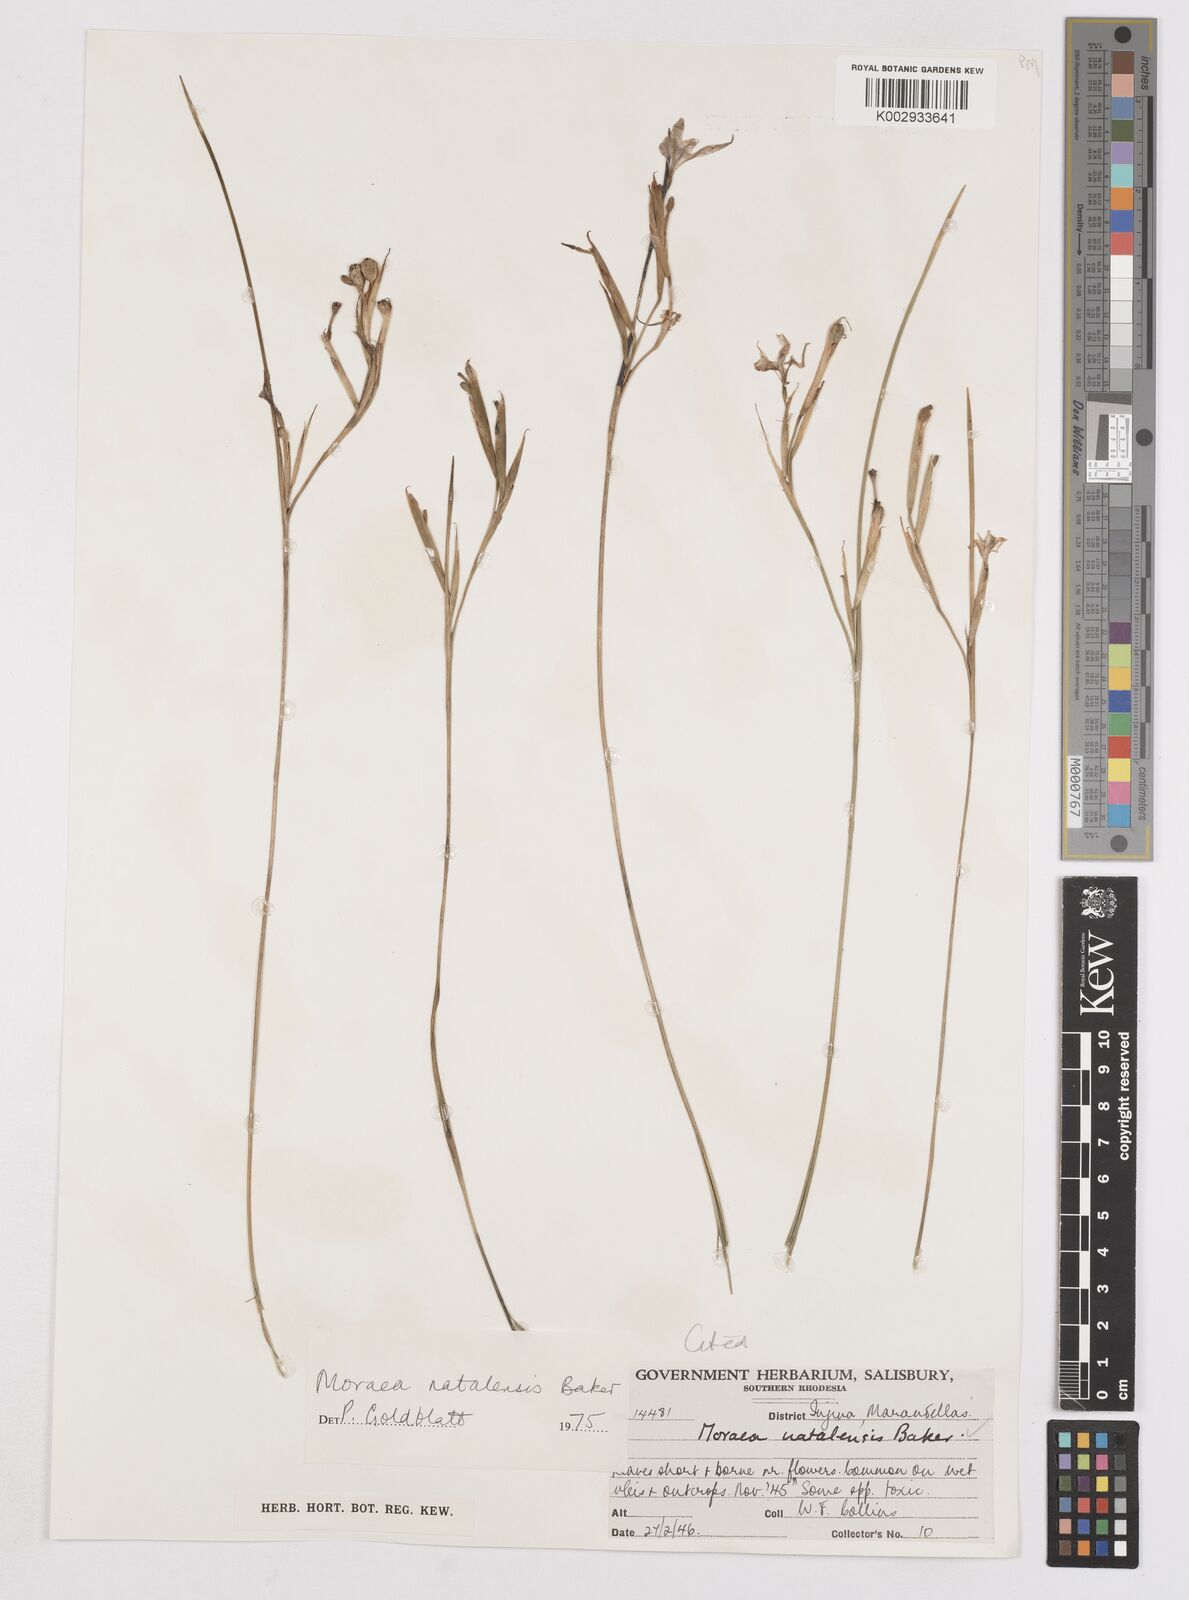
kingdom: Plantae
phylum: Tracheophyta
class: Liliopsida
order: Asparagales
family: Iridaceae
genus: Moraea
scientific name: Moraea natalensis
